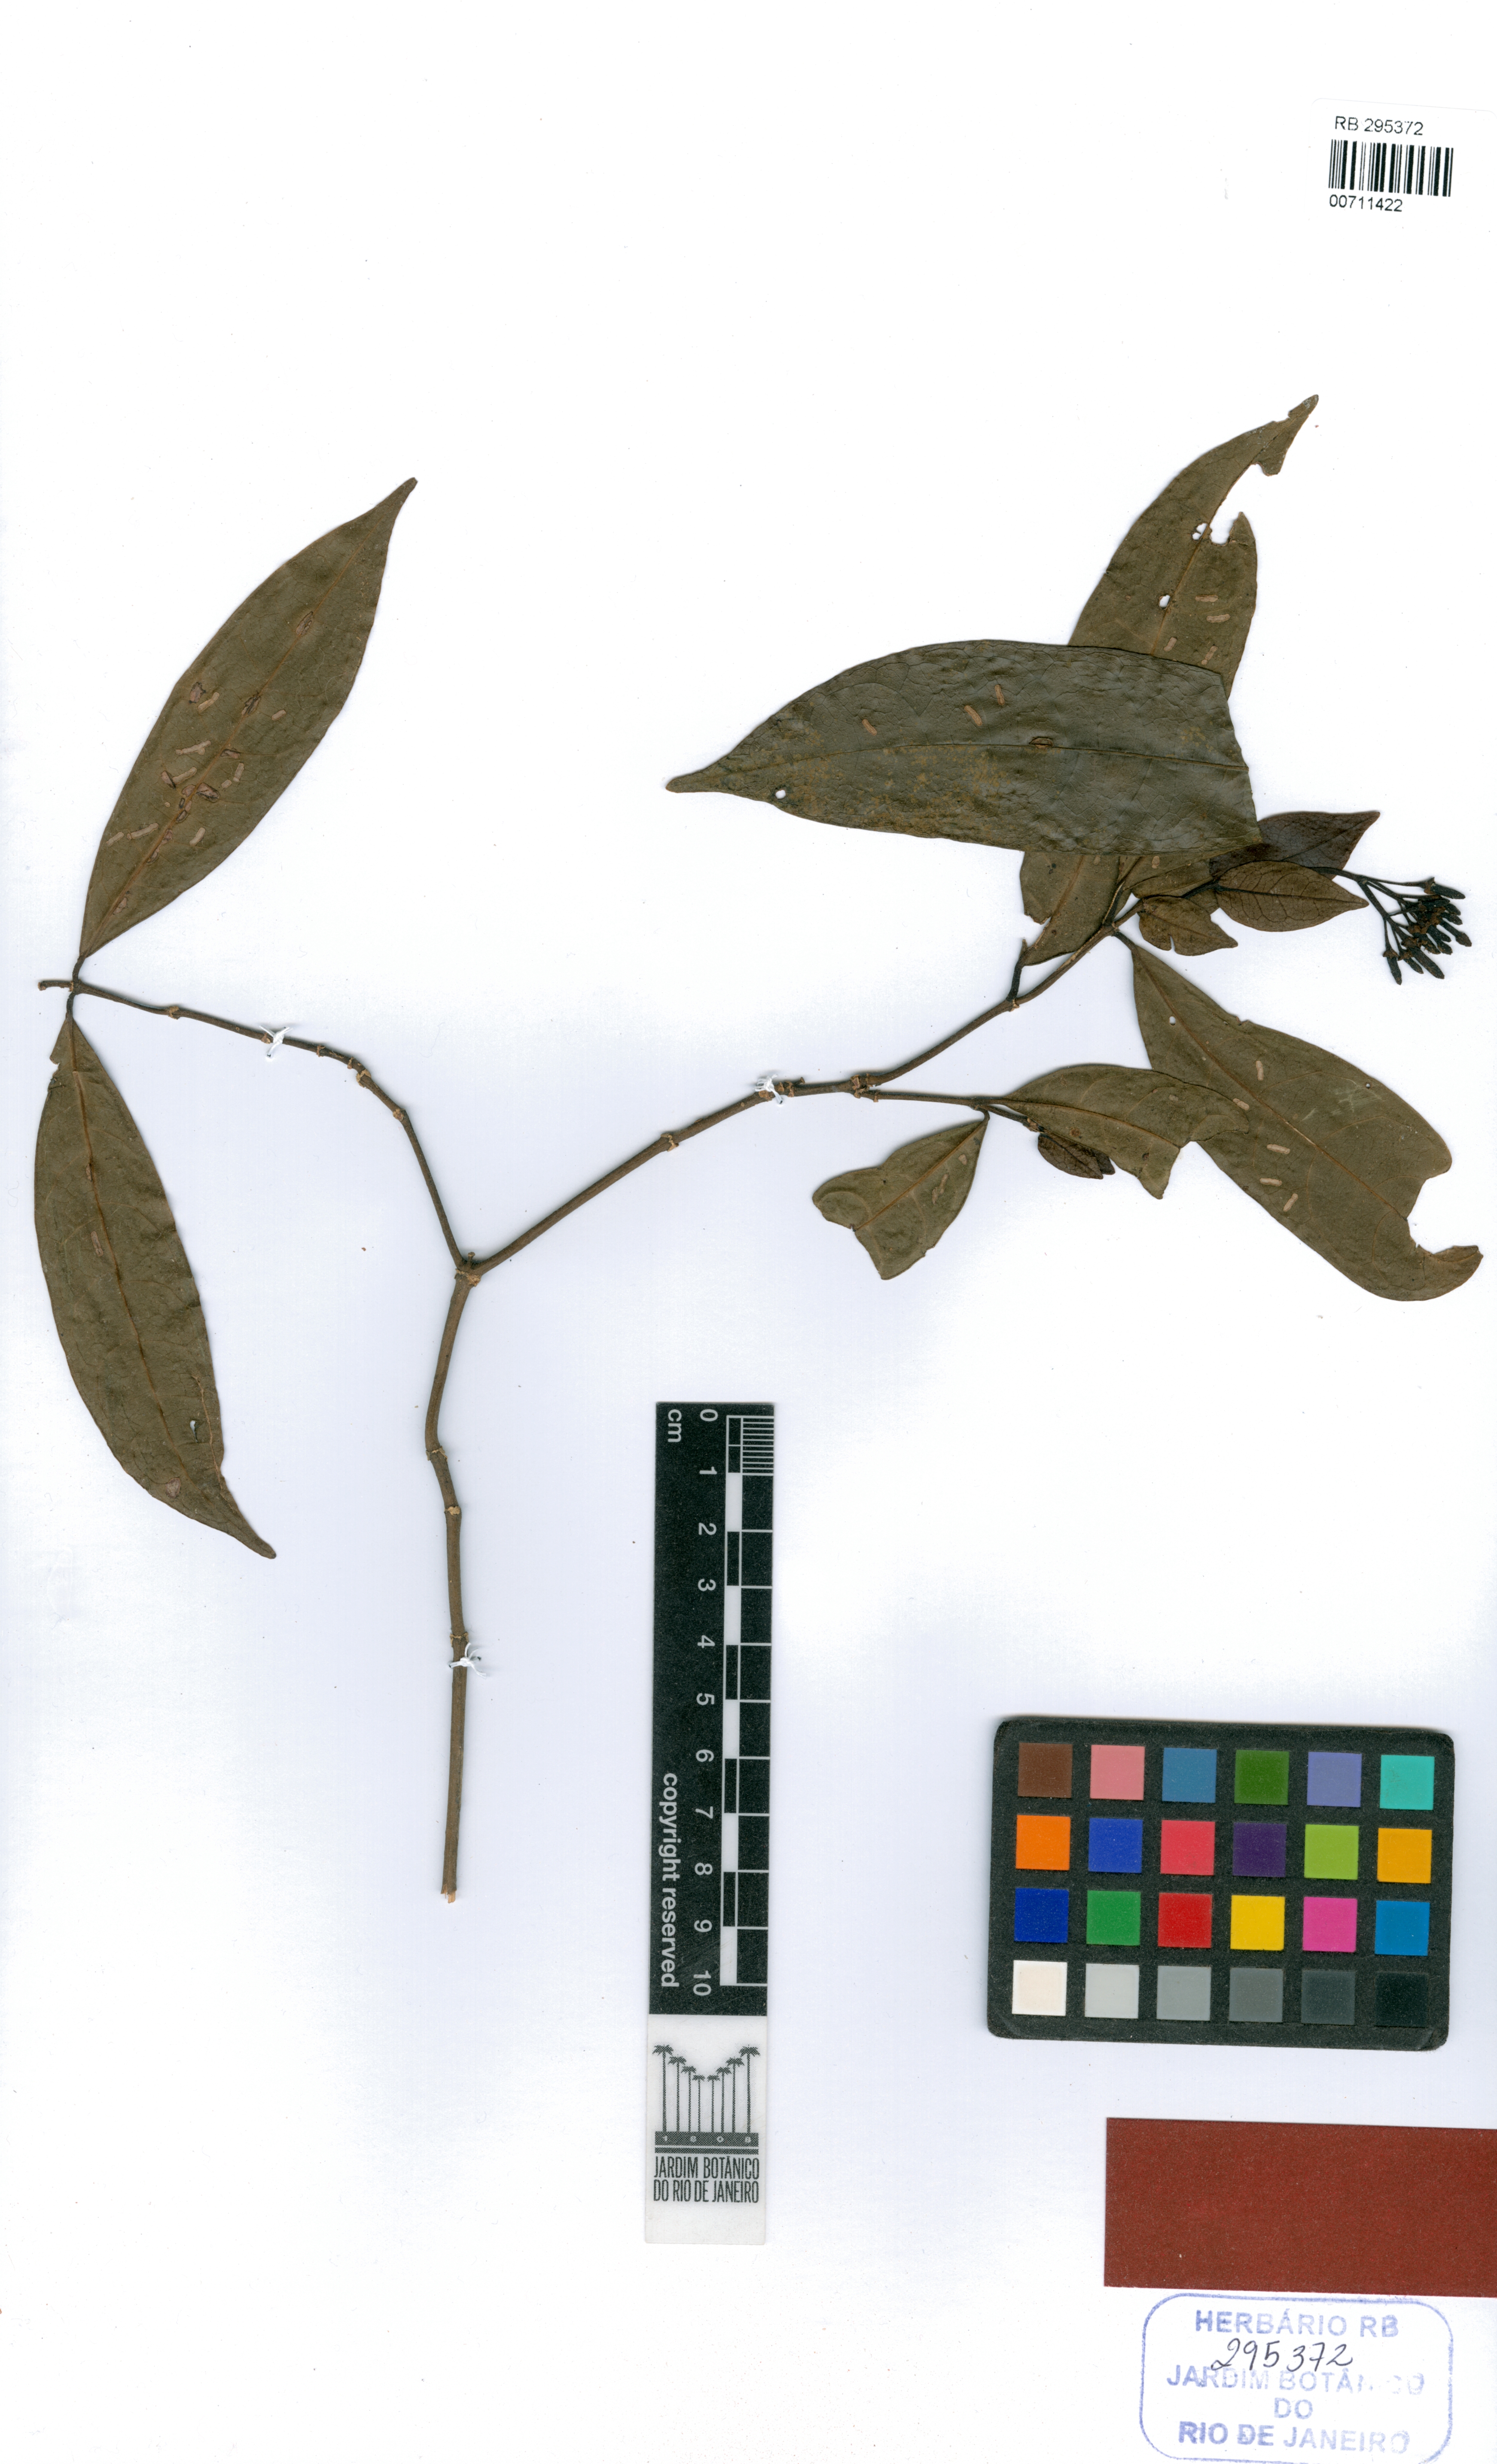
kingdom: Plantae
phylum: Tracheophyta
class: Magnoliopsida
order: Gentianales
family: Rubiaceae
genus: Faramea
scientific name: Faramea hymenocalyx
